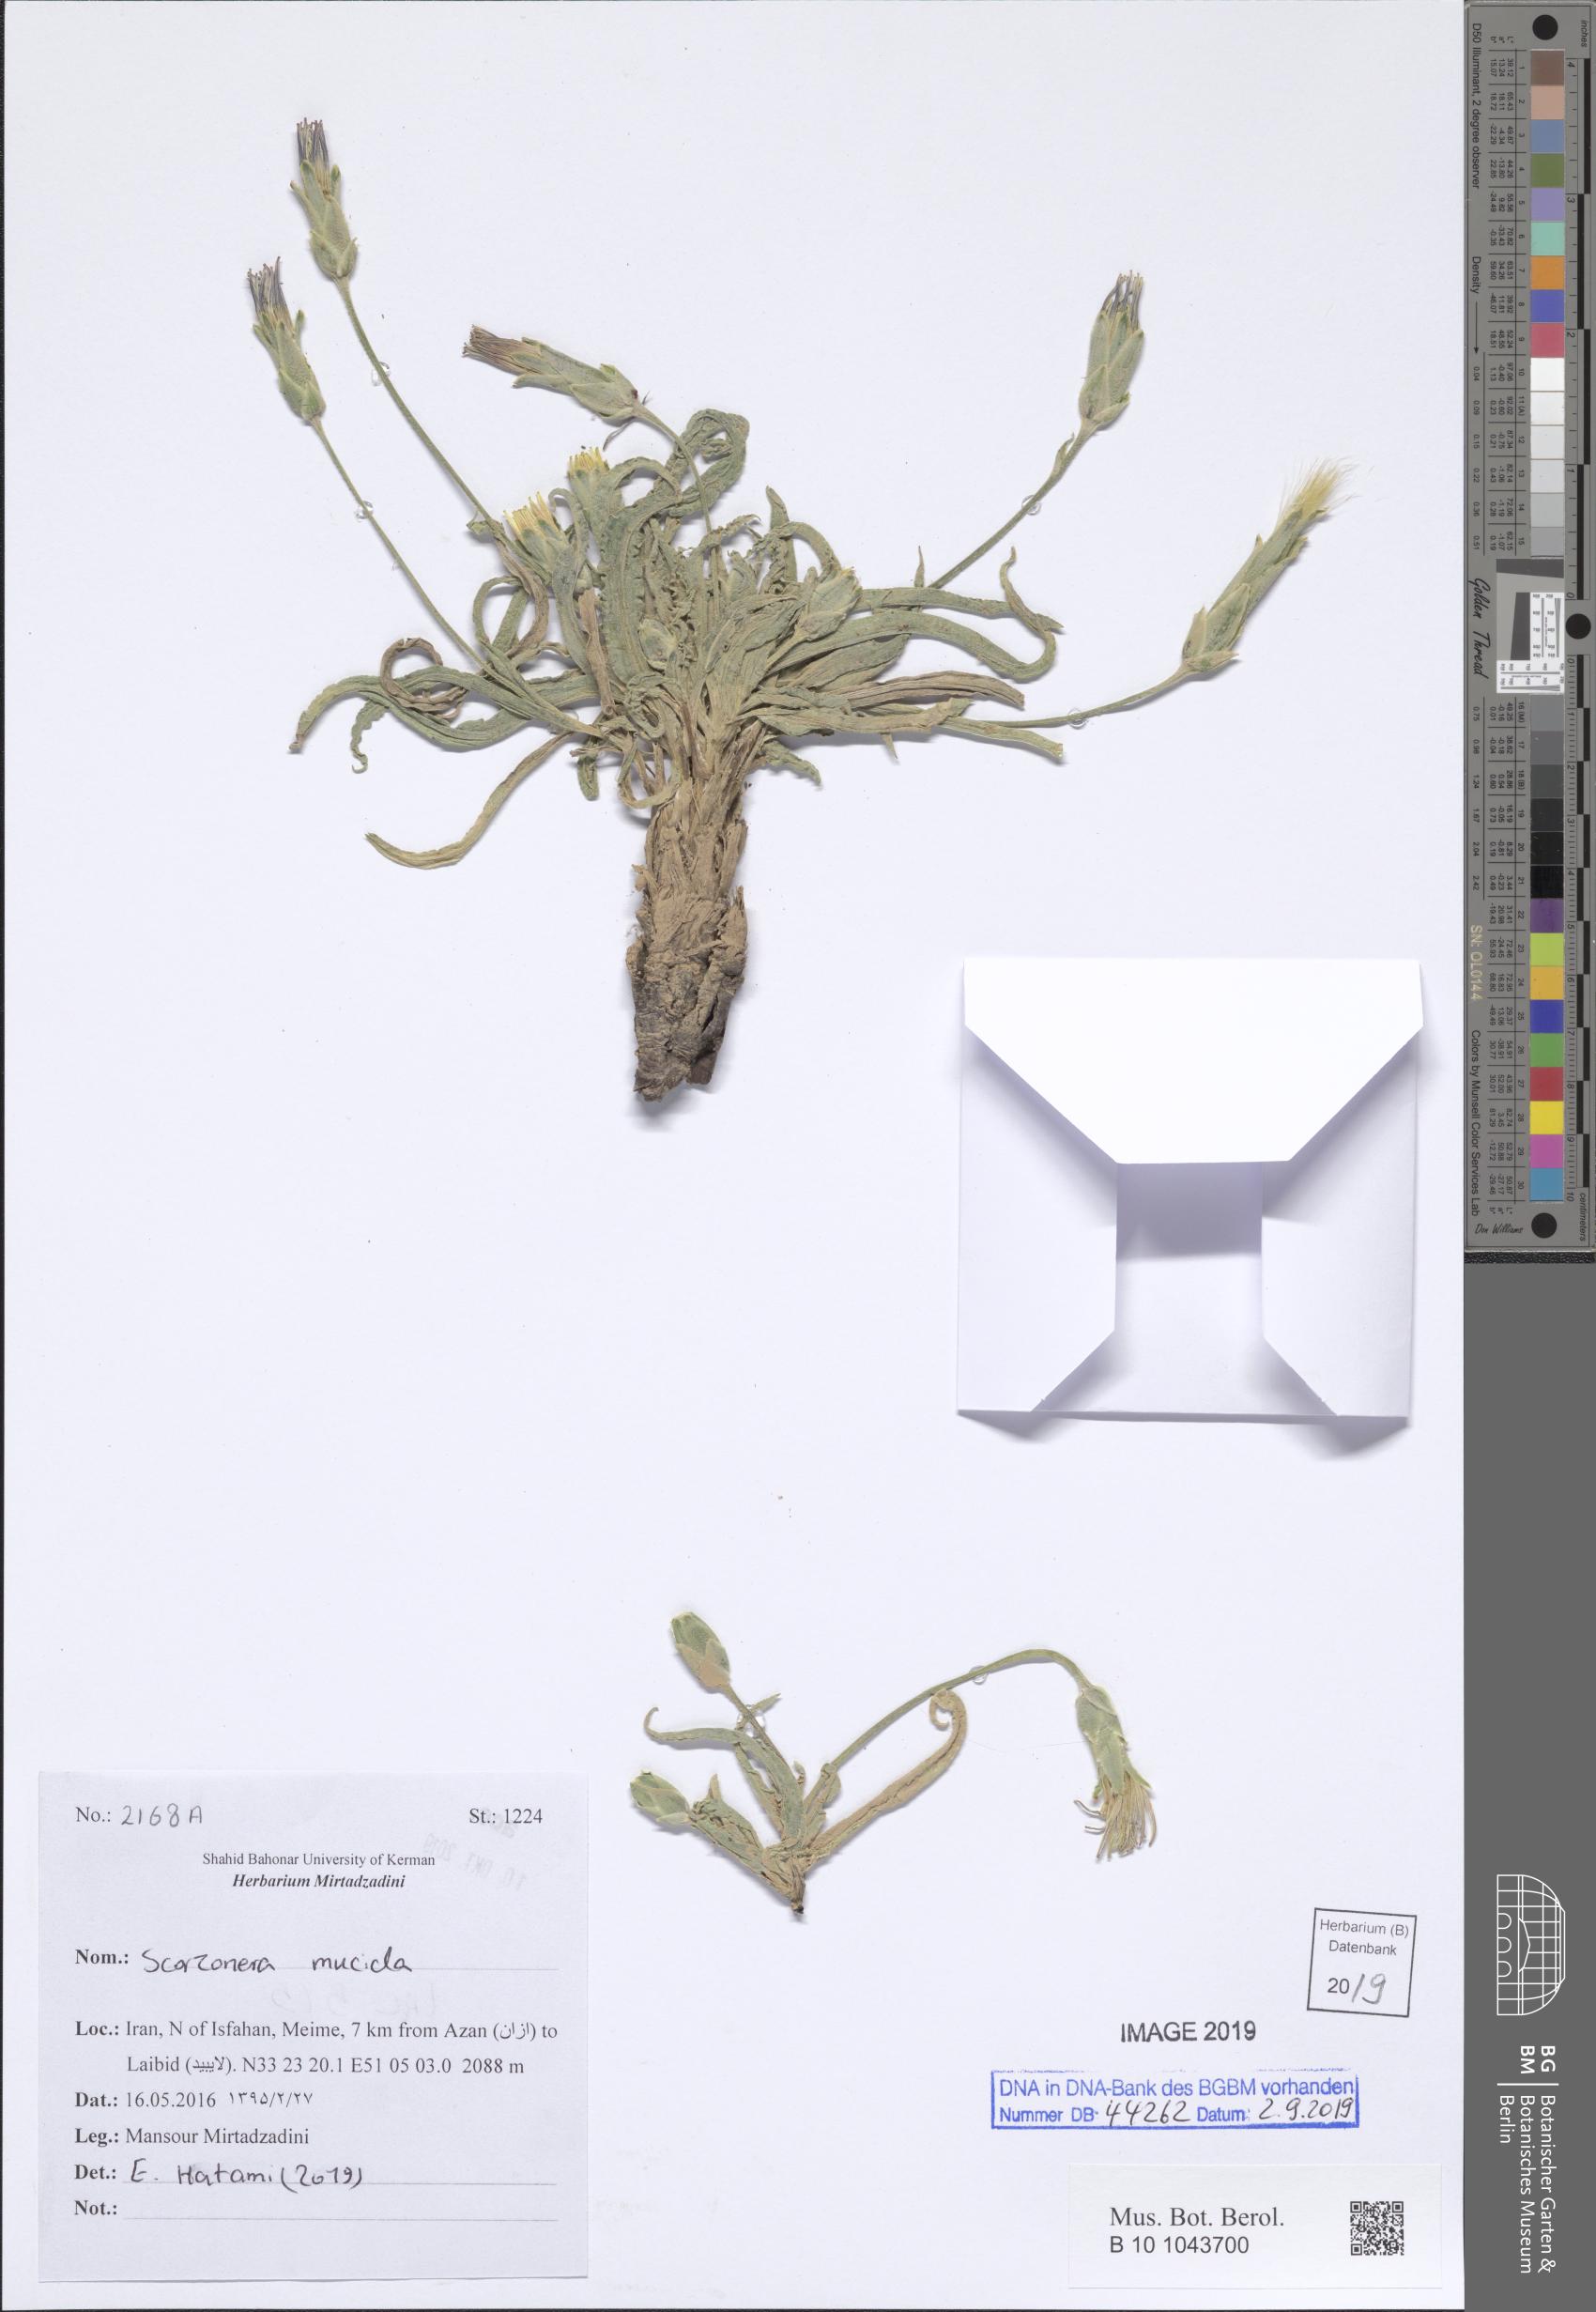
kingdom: Plantae
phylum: Tracheophyta
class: Magnoliopsida
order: Asterales
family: Asteraceae
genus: Candollea
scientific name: Candollea mucida
